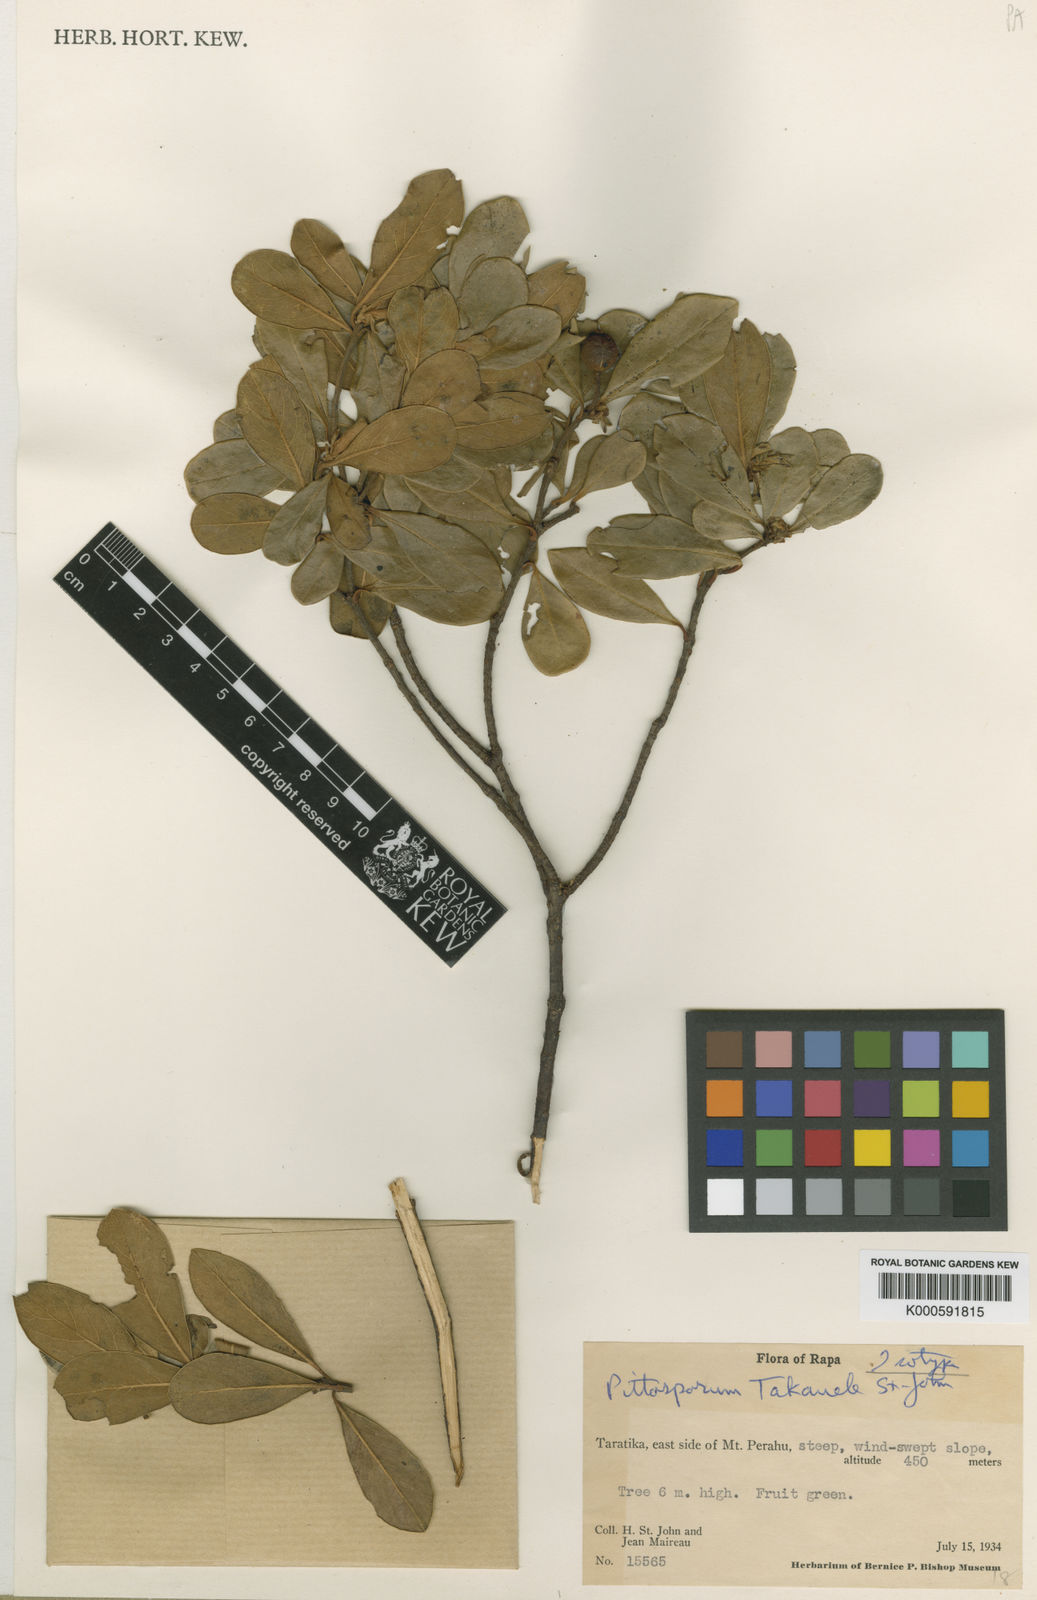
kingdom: Plantae
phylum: Tracheophyta
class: Magnoliopsida
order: Apiales
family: Pittosporaceae
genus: Pittosporum
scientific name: Pittosporum takauele
